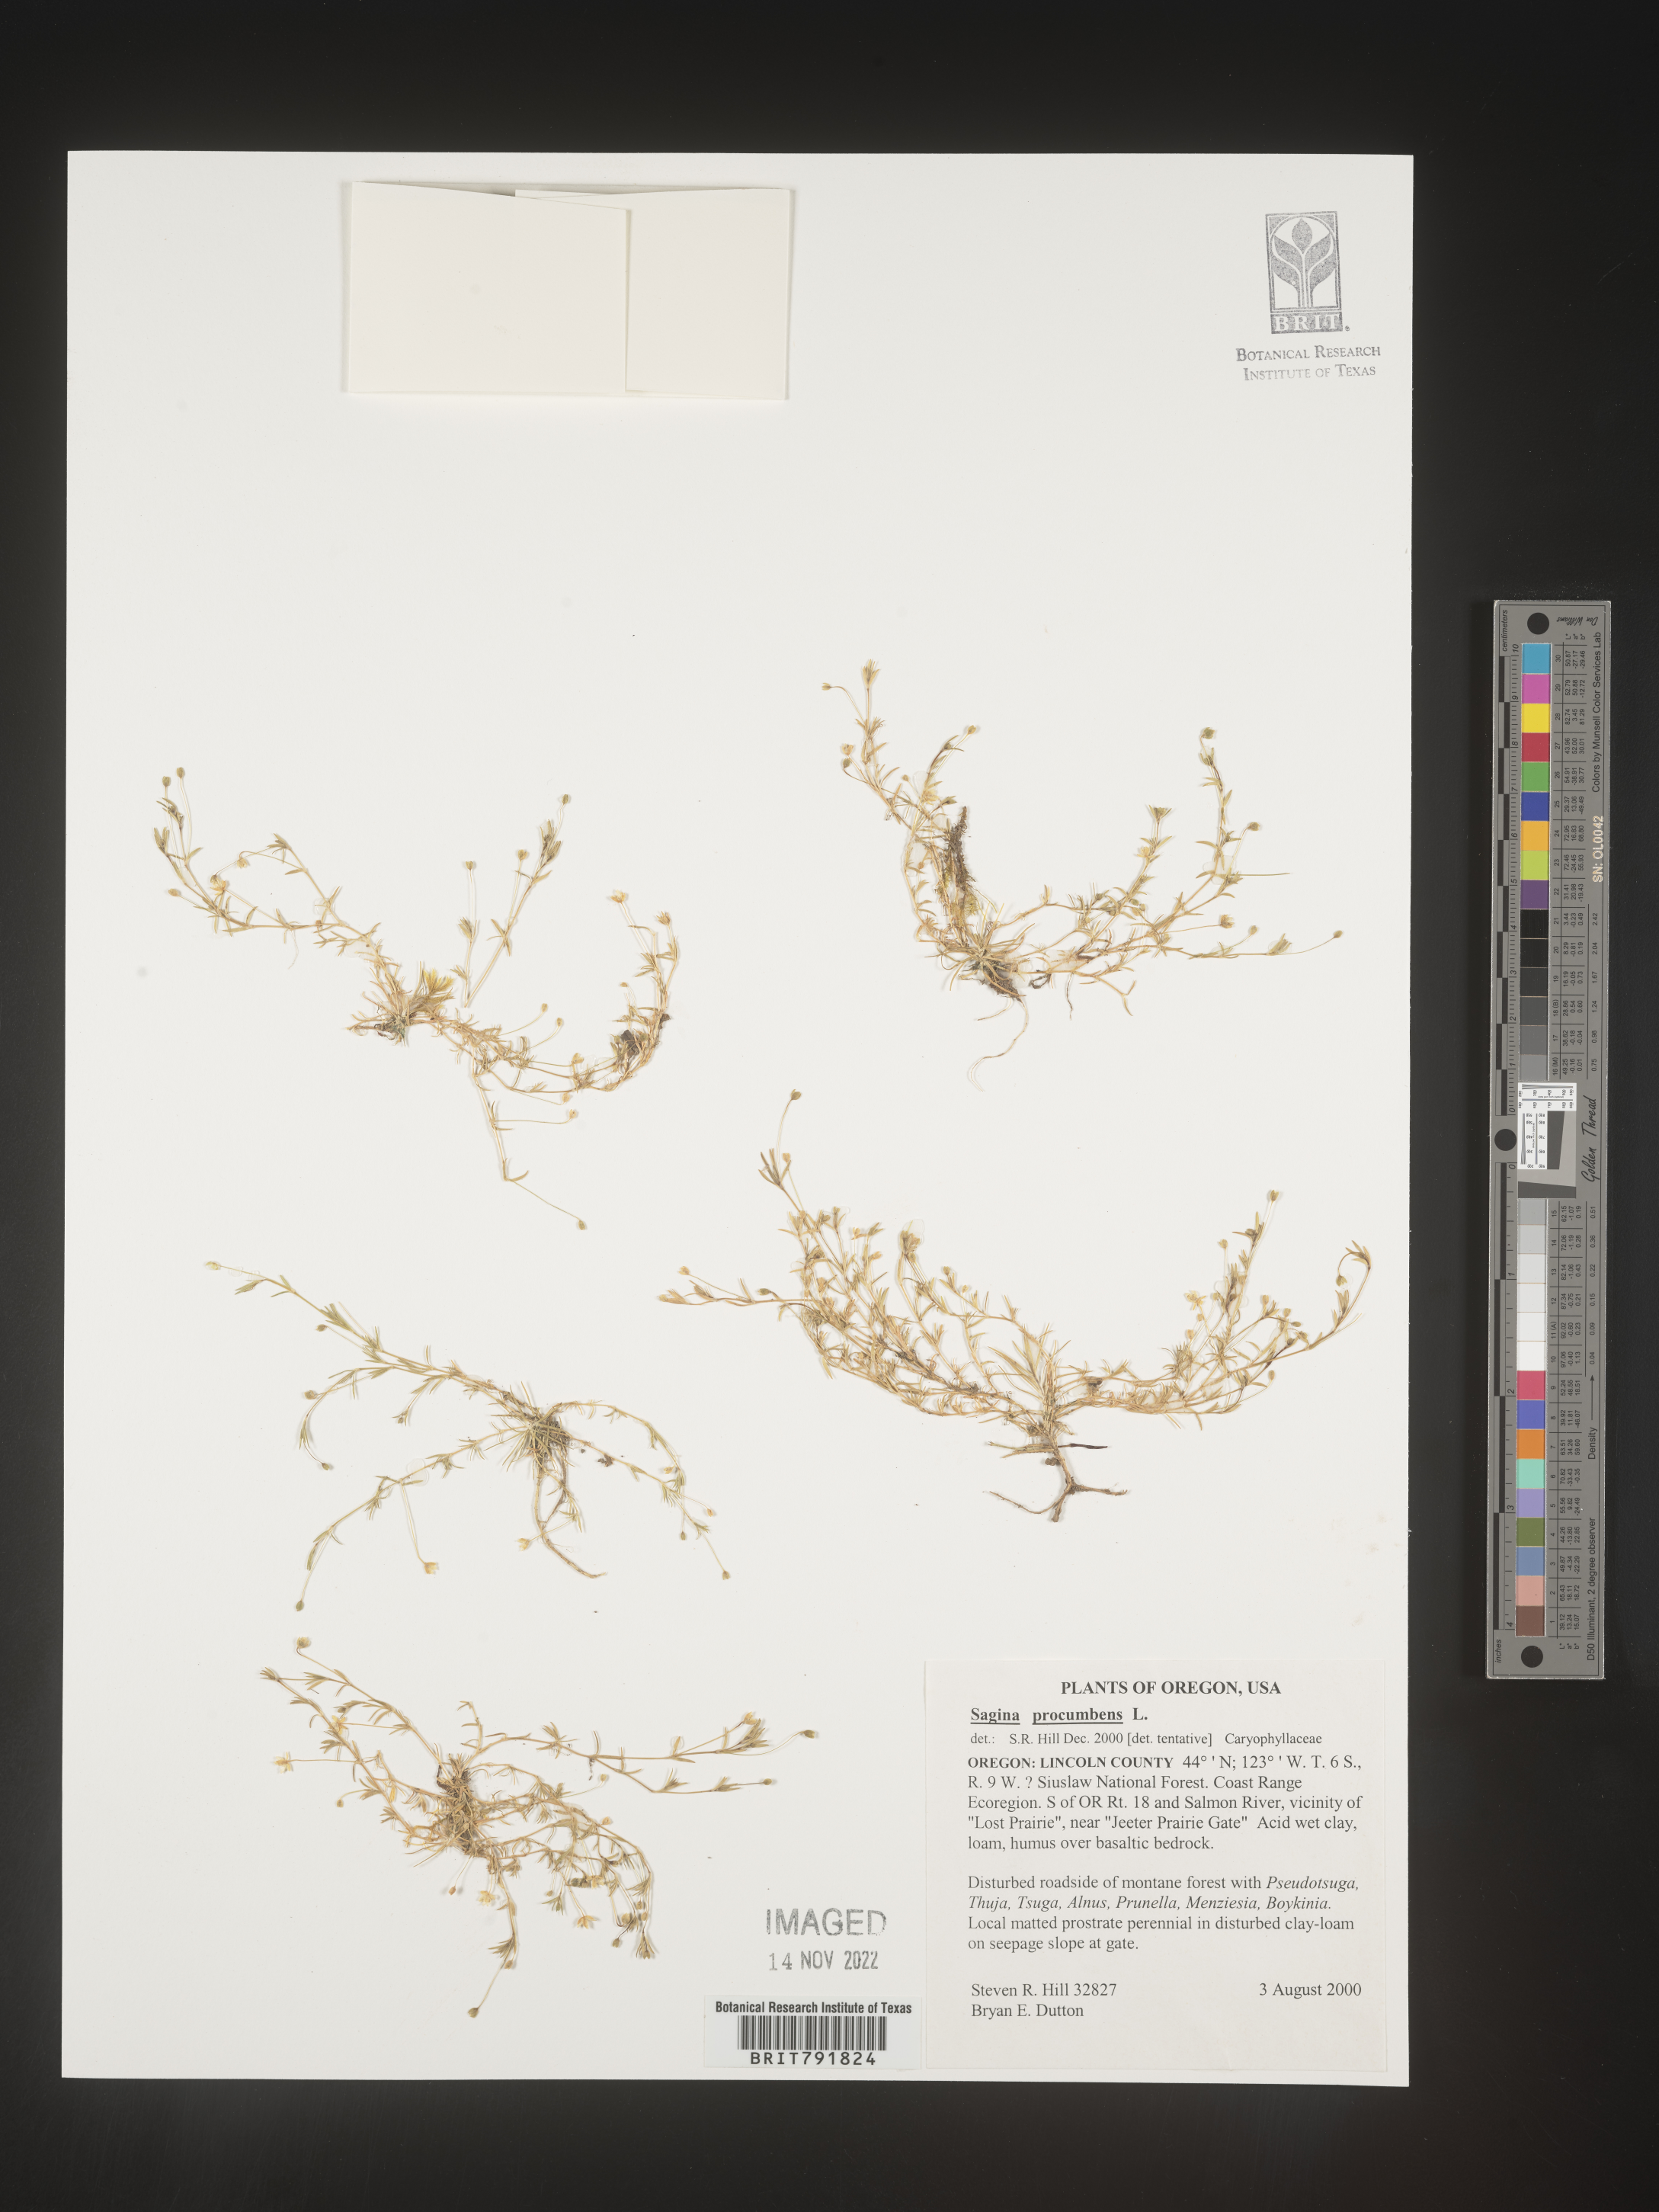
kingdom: Plantae
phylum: Tracheophyta
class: Magnoliopsida
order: Caryophyllales
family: Caryophyllaceae
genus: Sagina
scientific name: Sagina
